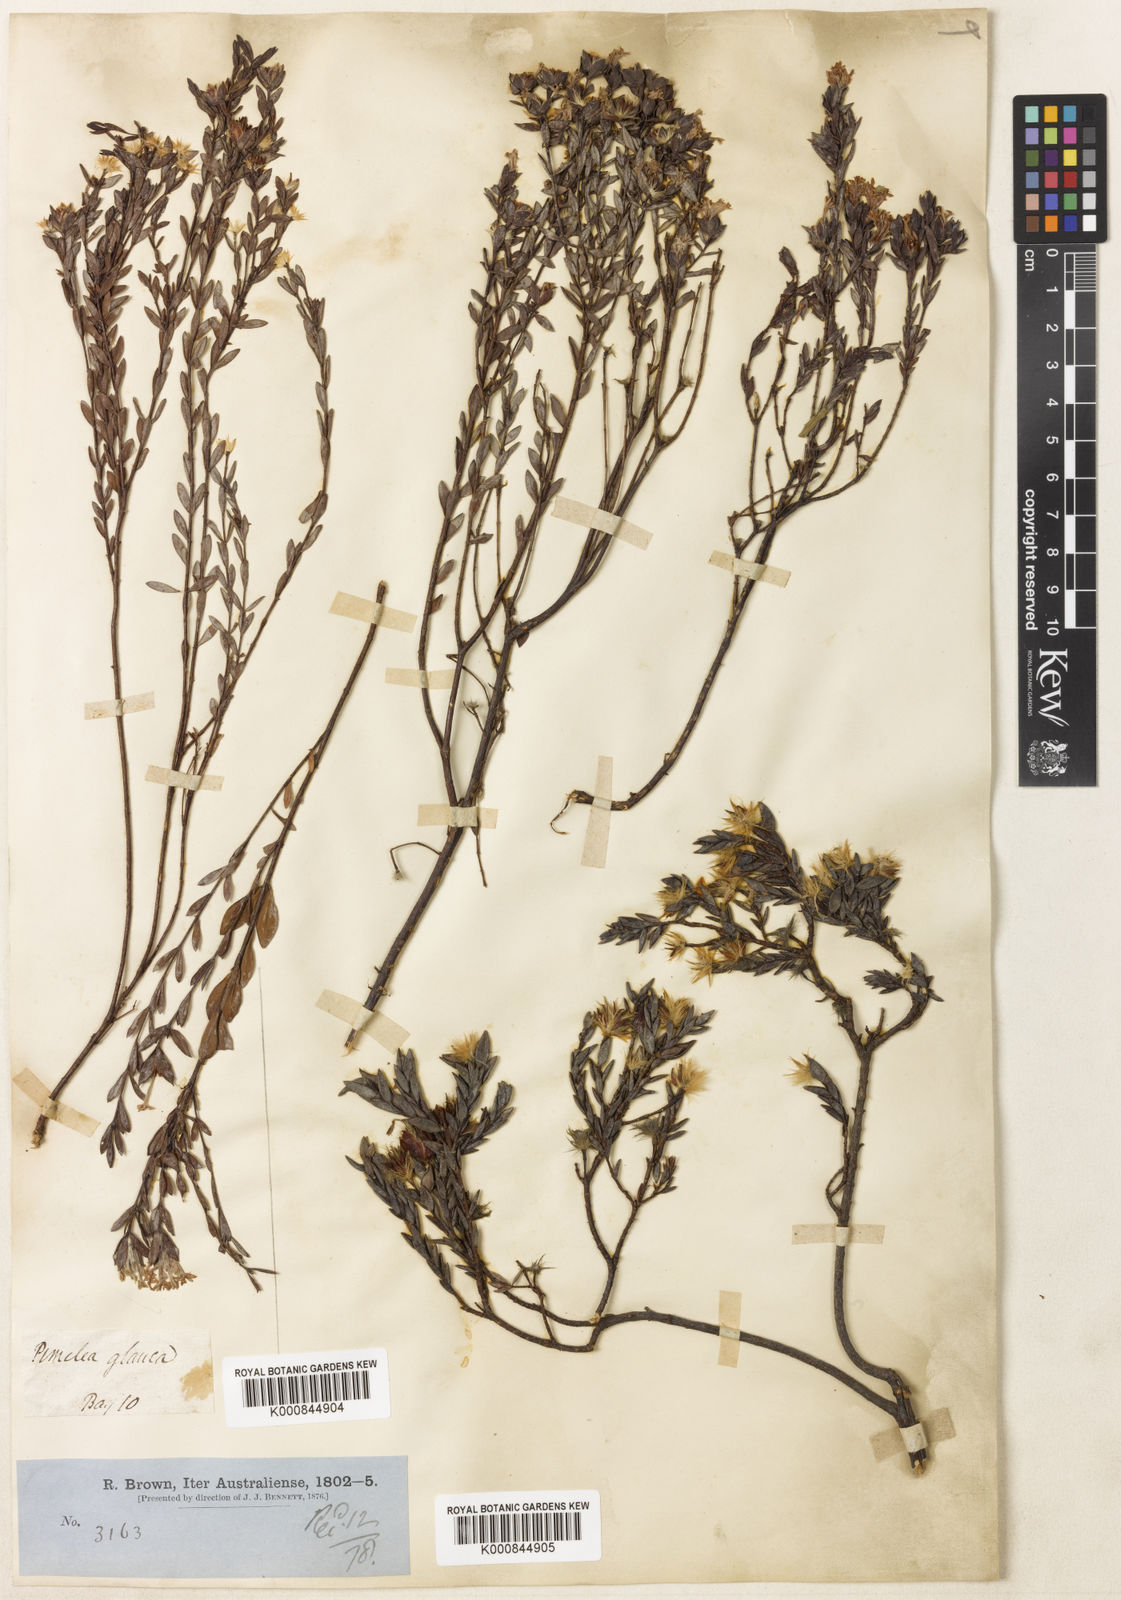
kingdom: Plantae
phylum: Tracheophyta
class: Magnoliopsida
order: Malvales
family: Thymelaeaceae
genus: Pimelea
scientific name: Pimelea glauca
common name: Smooth riceflower
